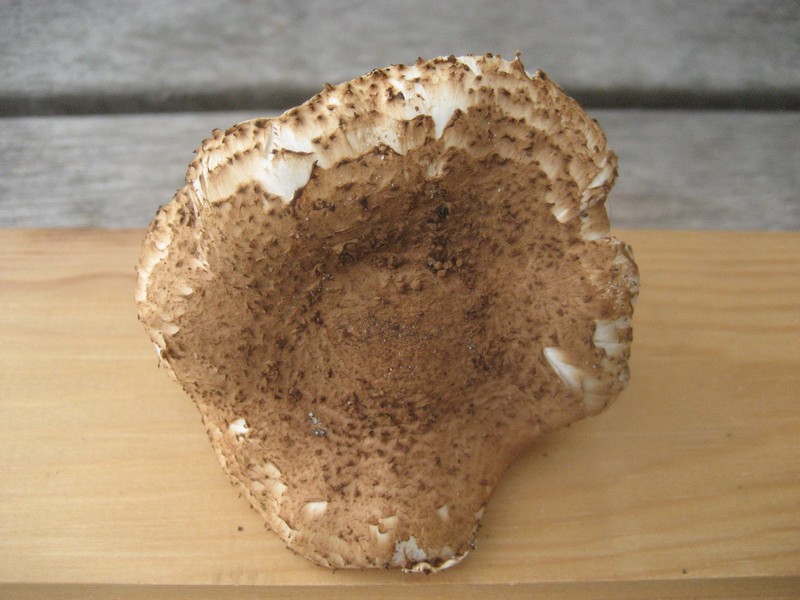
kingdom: Fungi
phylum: Basidiomycota
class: Agaricomycetes
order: Agaricales
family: Agaricaceae
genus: Echinoderma
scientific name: Echinoderma echinaceum
